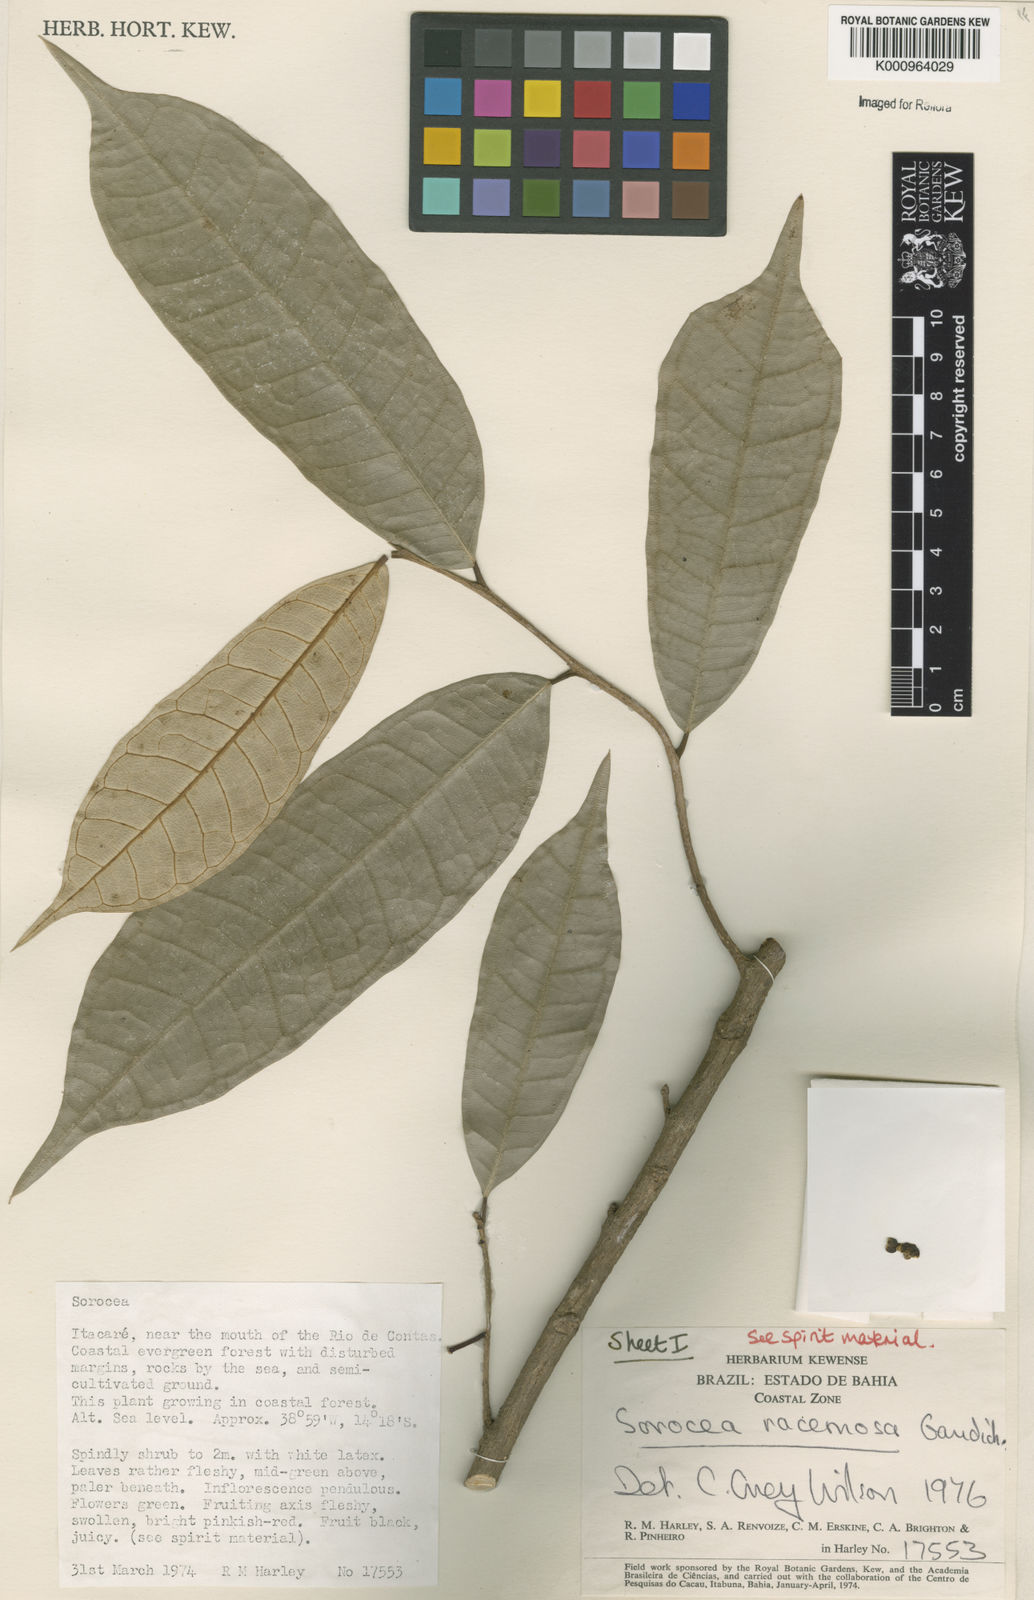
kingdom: Plantae
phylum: Tracheophyta
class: Magnoliopsida
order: Rosales
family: Moraceae
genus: Sorocea
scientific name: Sorocea hilarii
